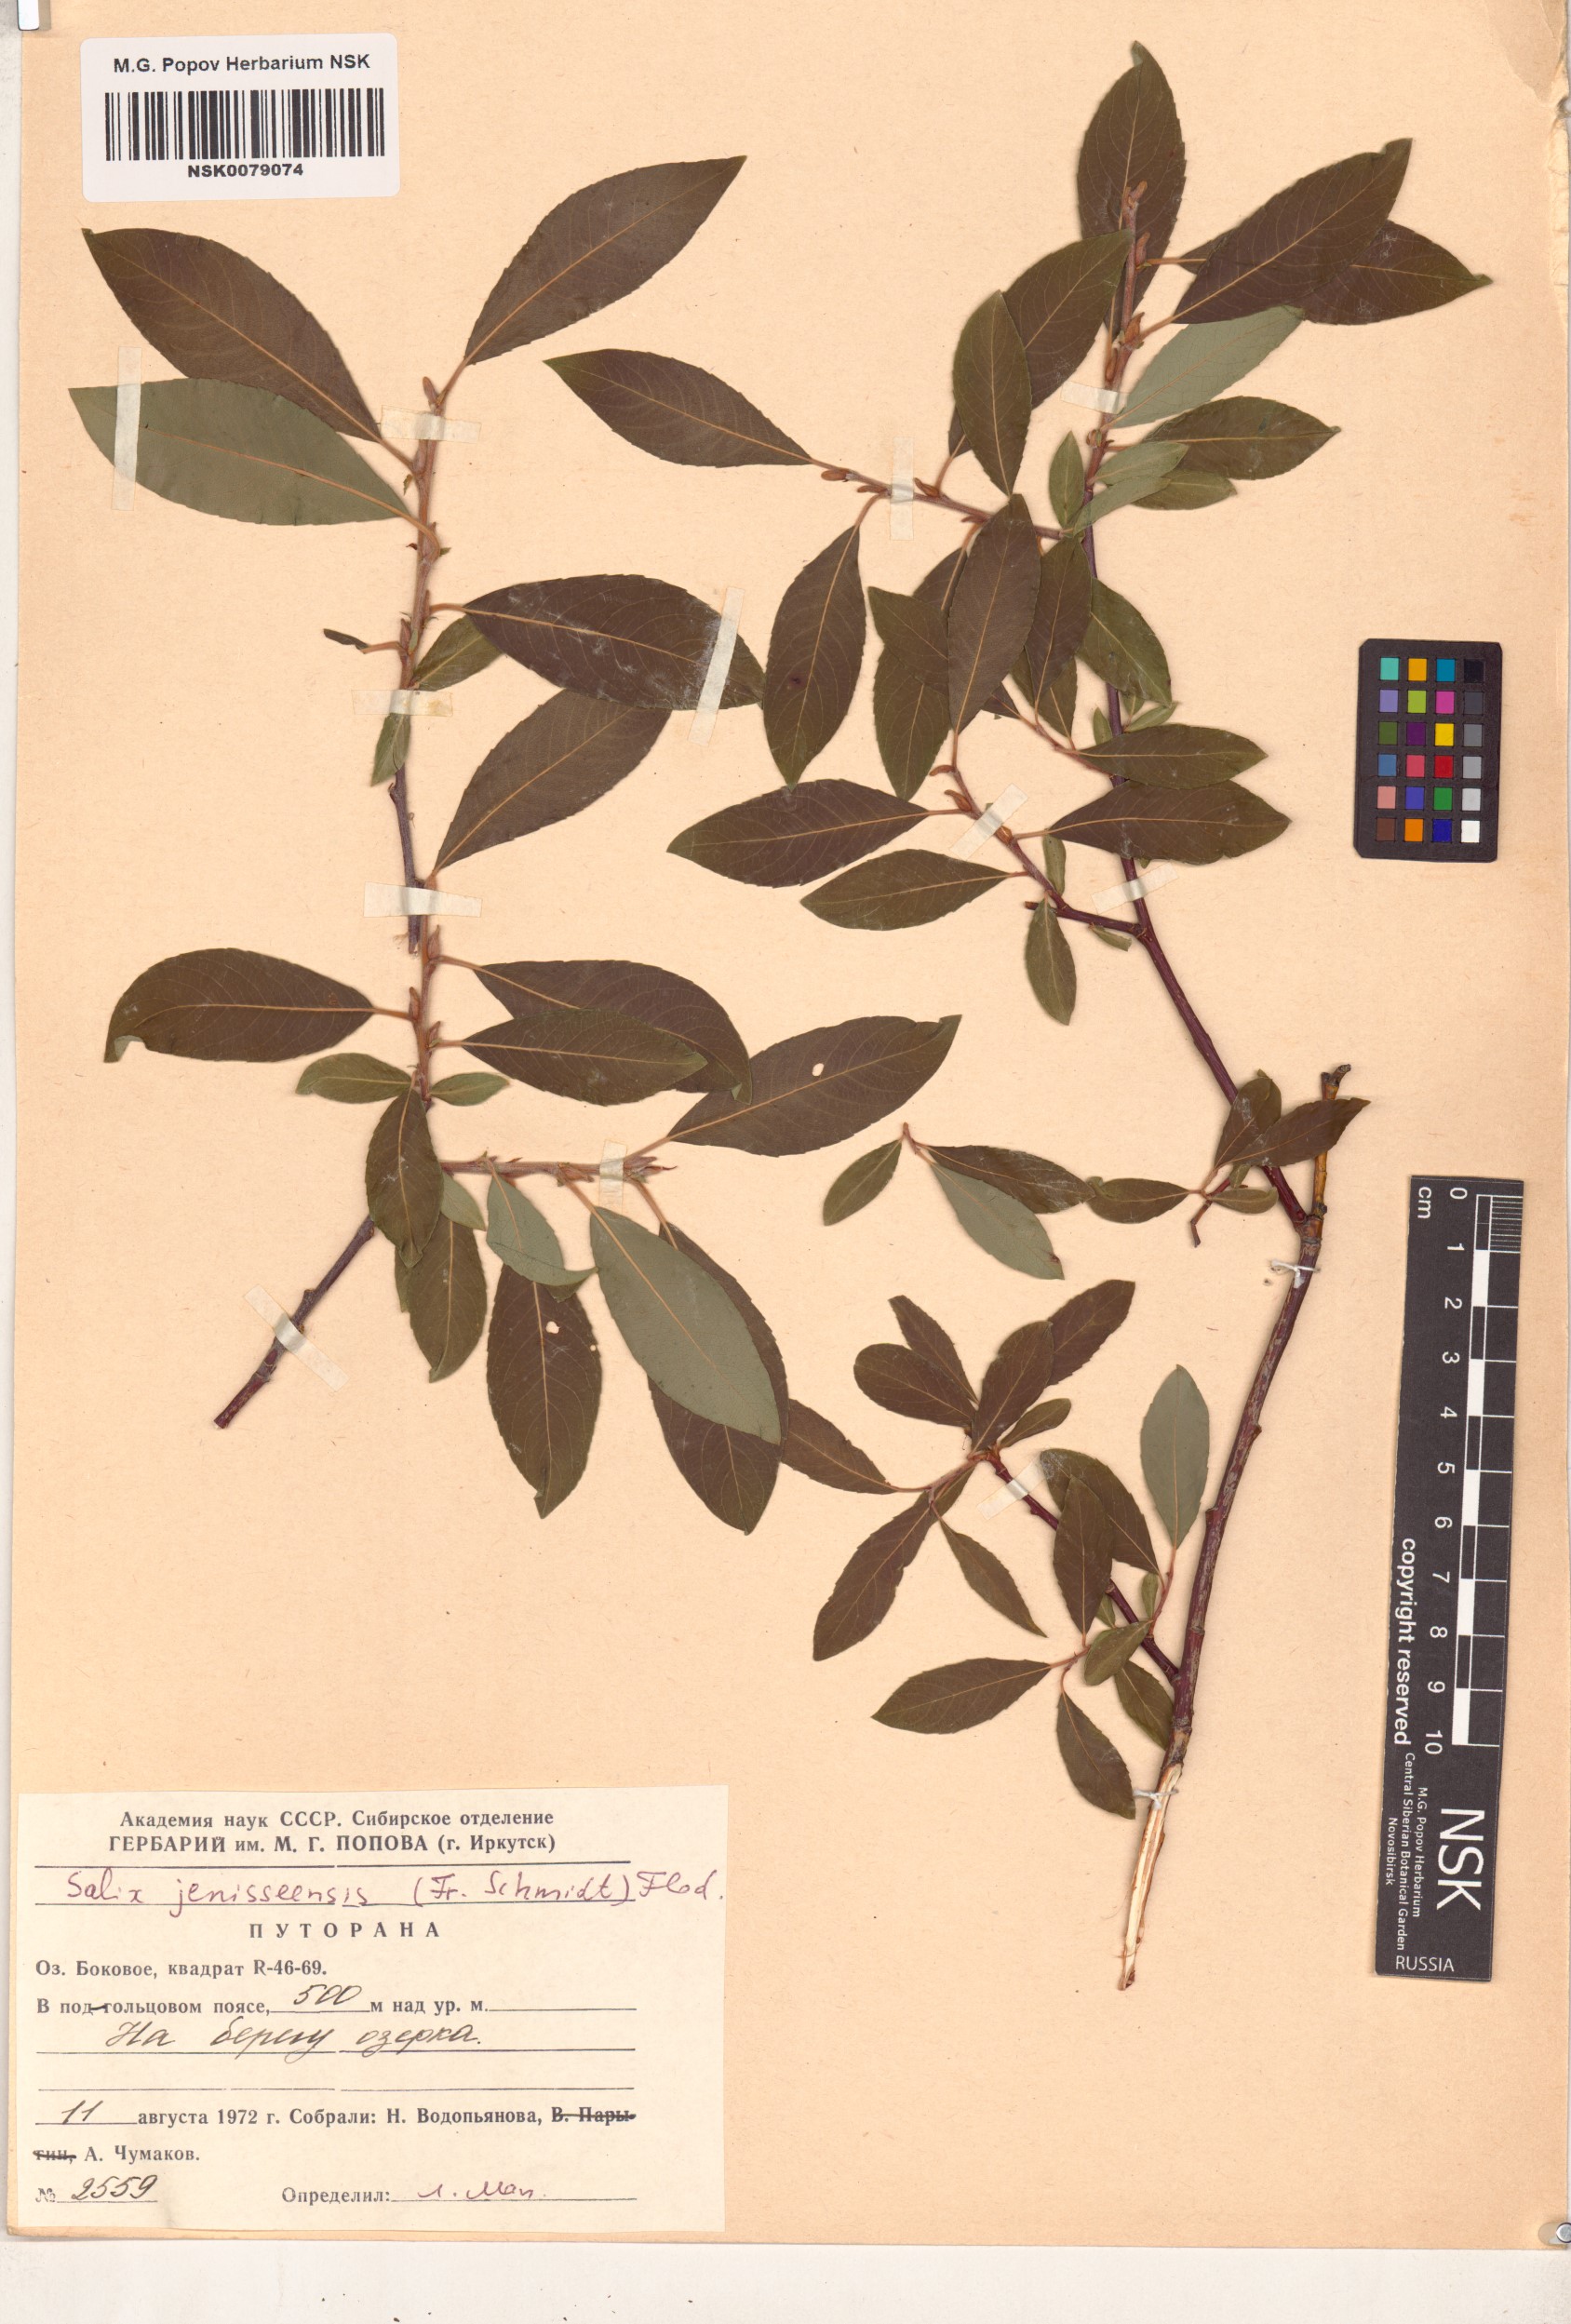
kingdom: Plantae
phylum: Tracheophyta
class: Magnoliopsida
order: Malpighiales
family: Salicaceae
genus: Salix
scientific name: Salix jenisseensis
